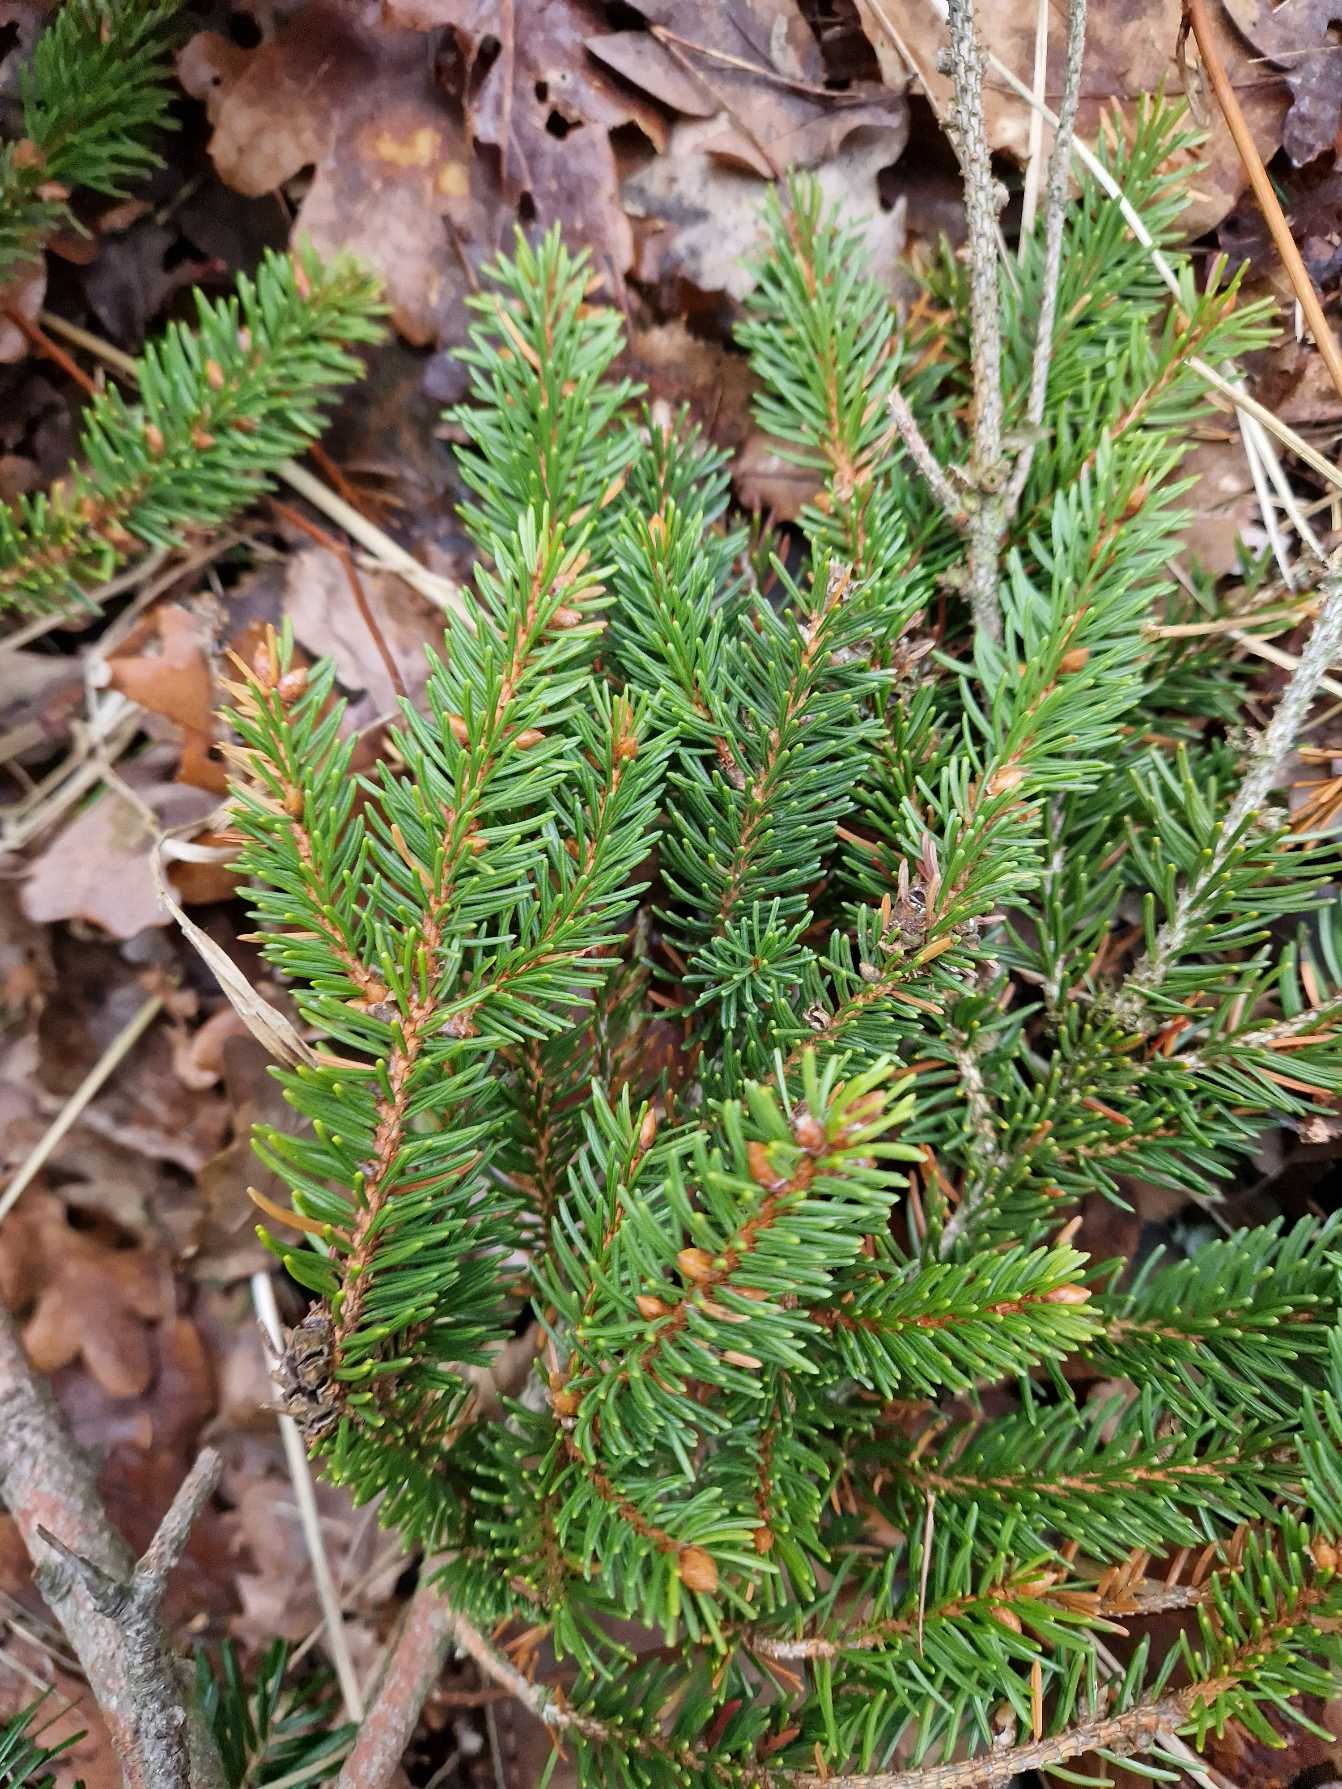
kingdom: Plantae
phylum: Tracheophyta
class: Pinopsida
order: Pinales
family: Pinaceae
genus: Picea
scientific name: Picea abies
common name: Rød-gran
